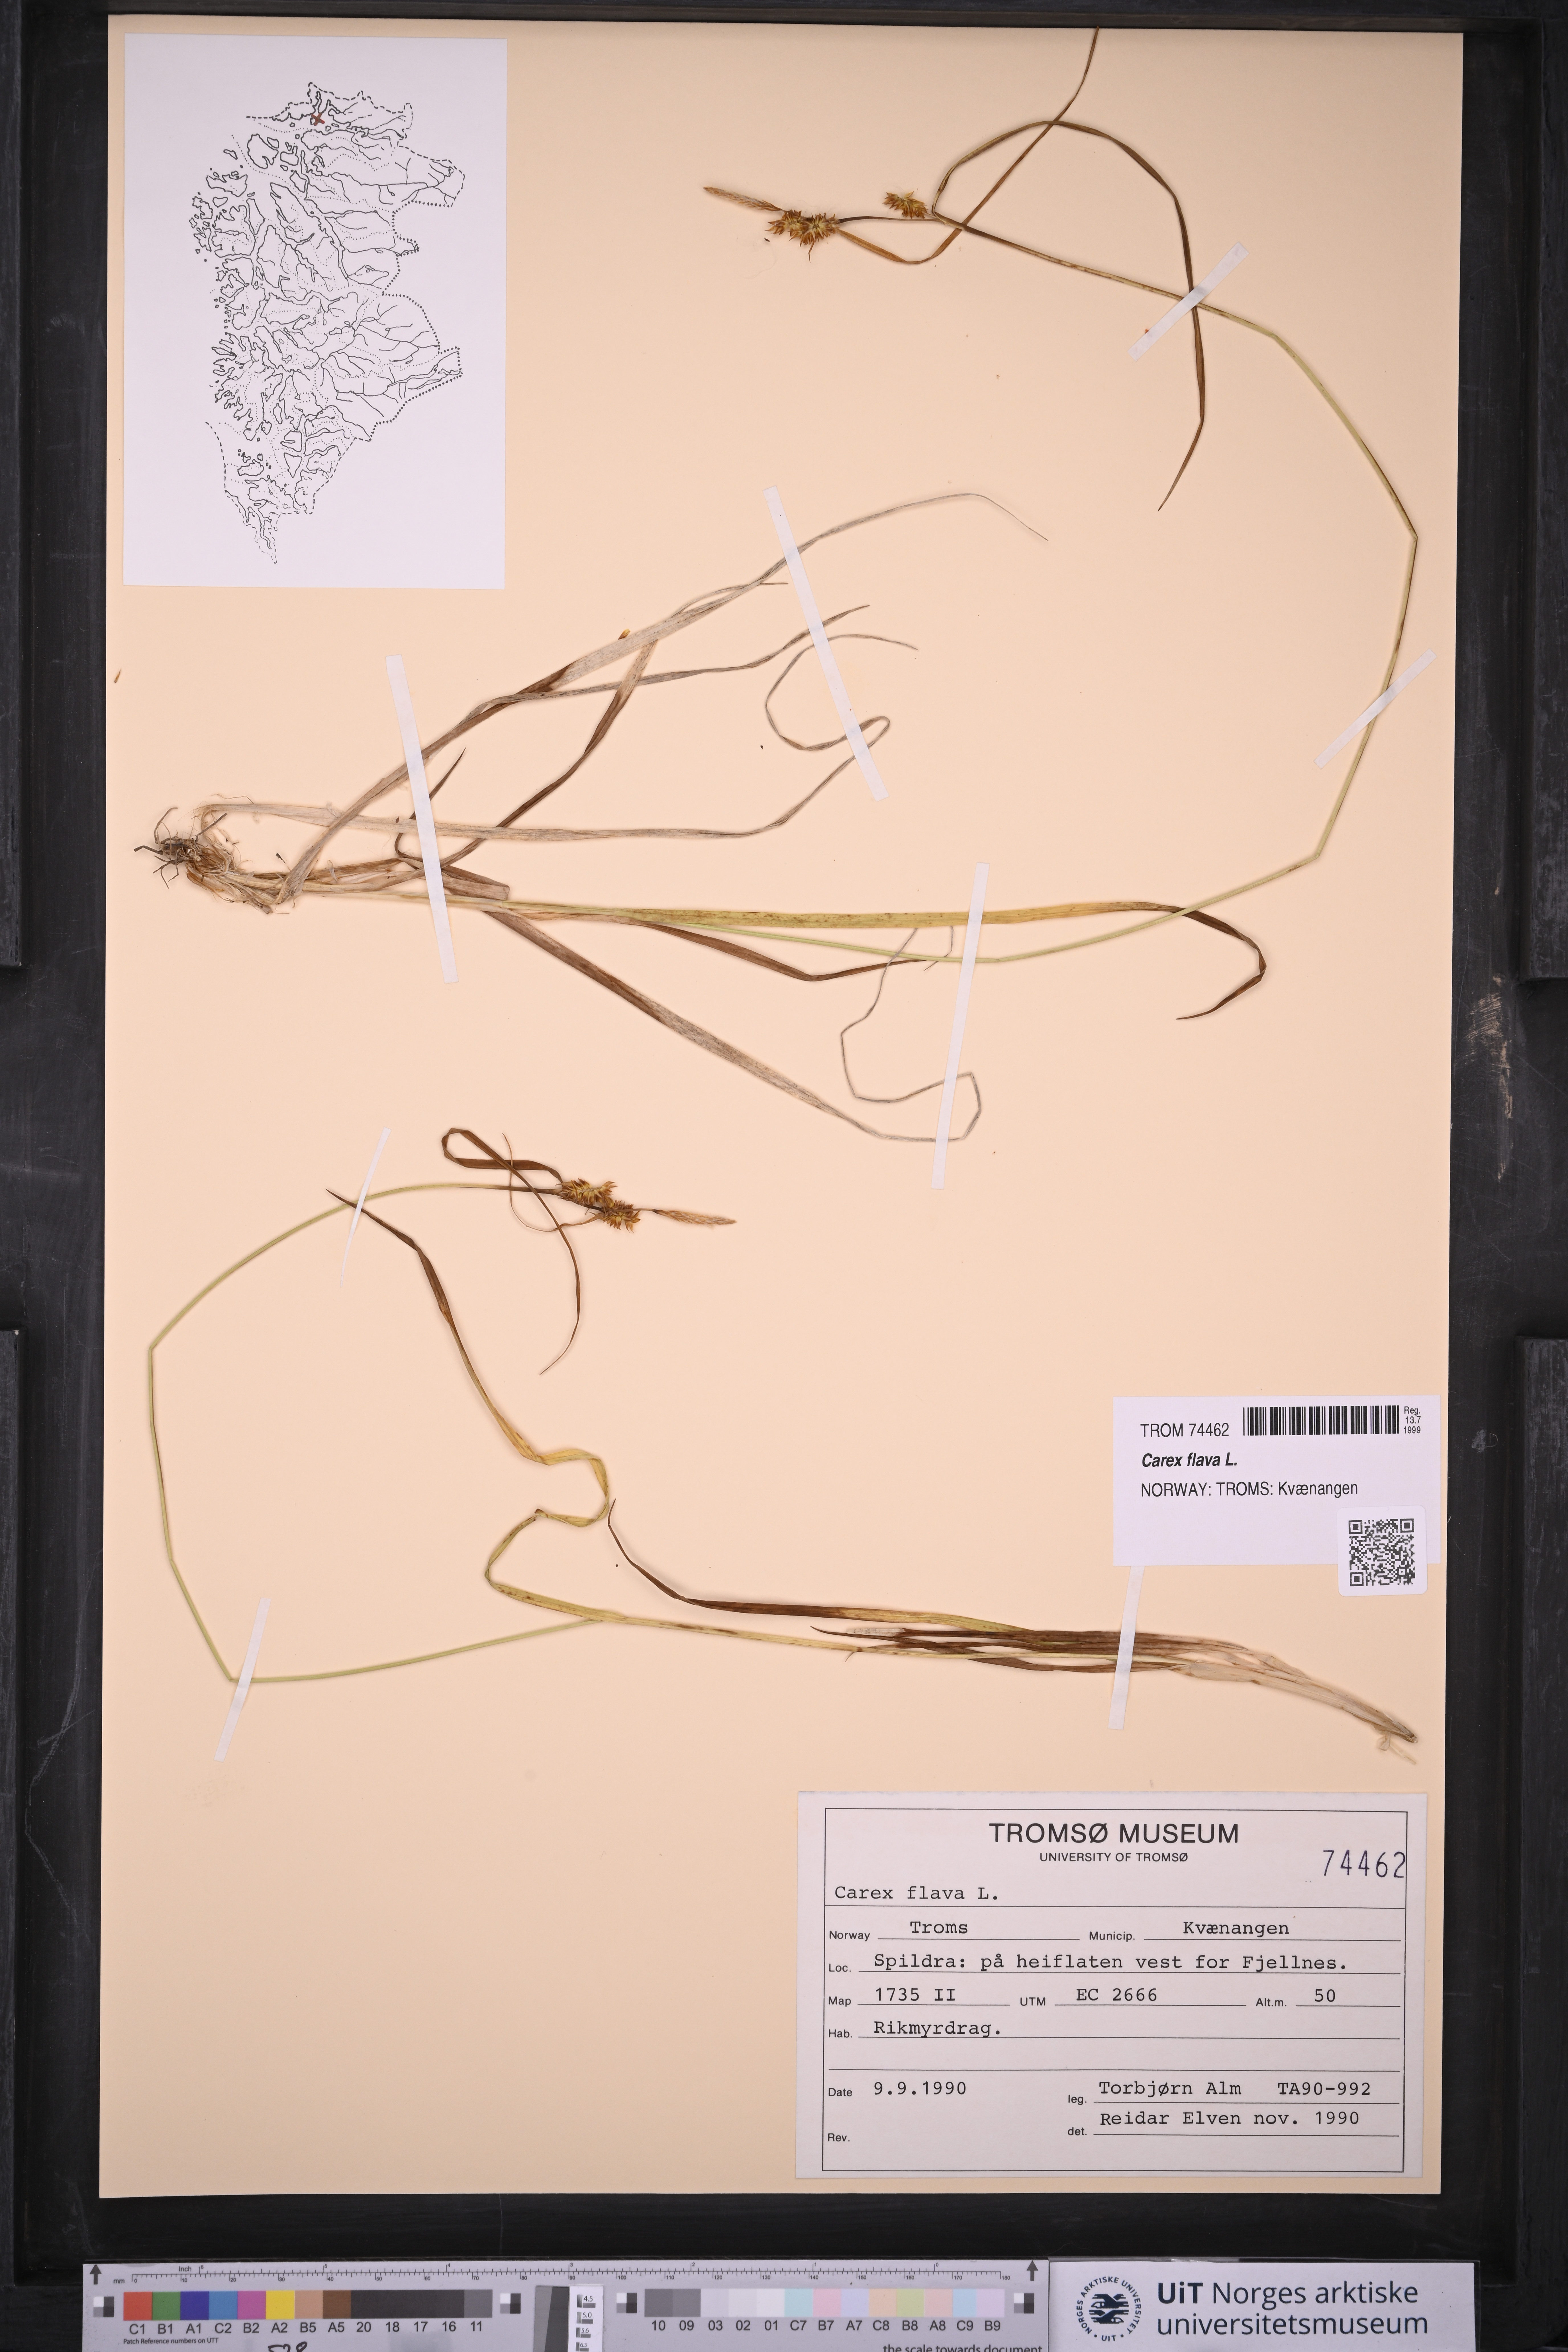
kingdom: Plantae
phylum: Tracheophyta
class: Liliopsida
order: Poales
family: Cyperaceae
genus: Carex
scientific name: Carex flava
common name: Large yellow-sedge
